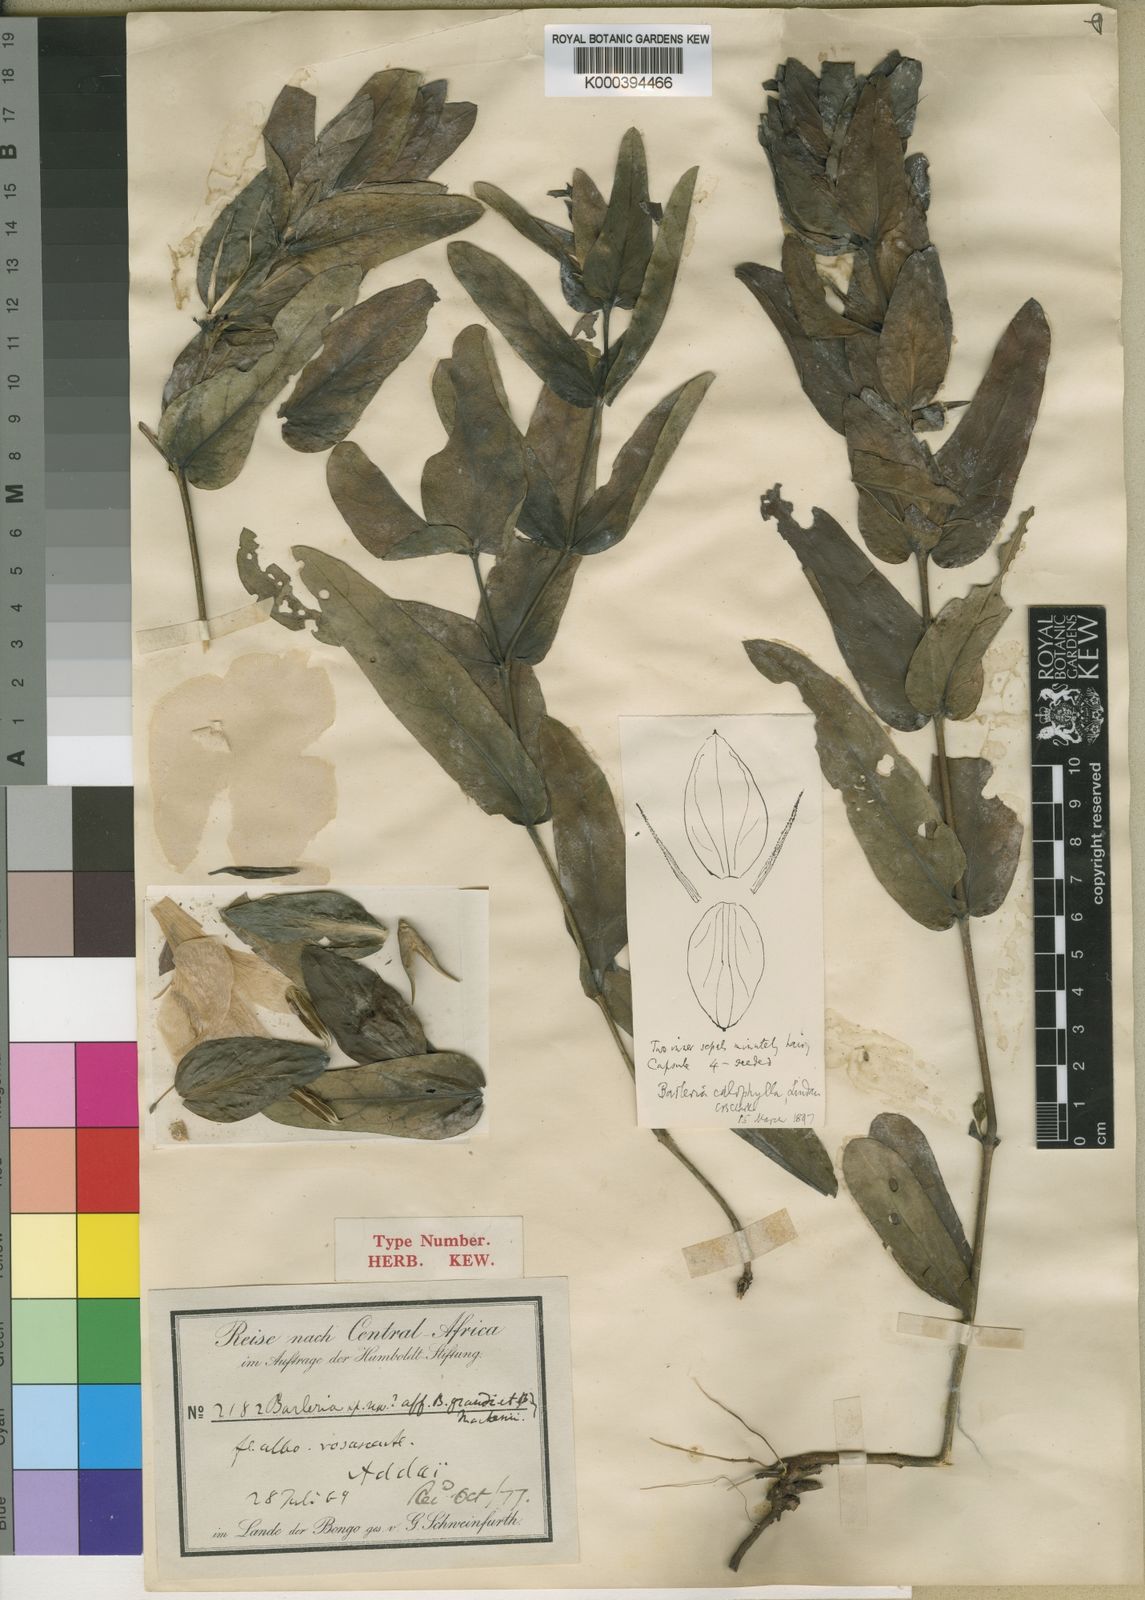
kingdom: Plantae
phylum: Tracheophyta
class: Magnoliopsida
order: Lamiales
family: Acanthaceae
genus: Barleria
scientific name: Barleria calophylla
